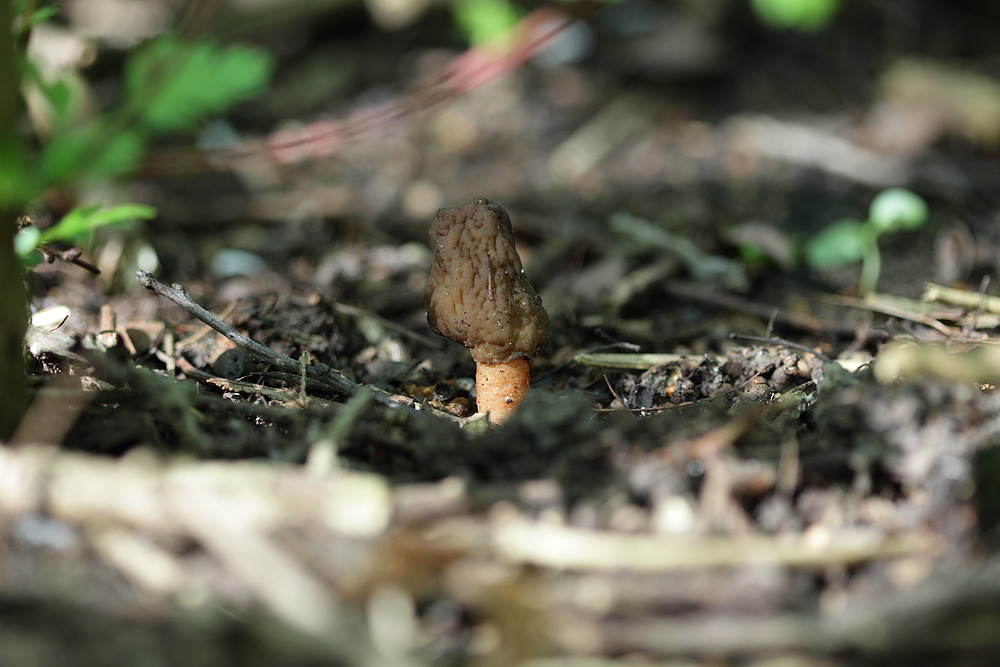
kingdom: Fungi
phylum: Ascomycota
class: Pezizomycetes
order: Pezizales
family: Morchellaceae
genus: Verpa
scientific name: Verpa conica
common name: glat klokkemorkel
